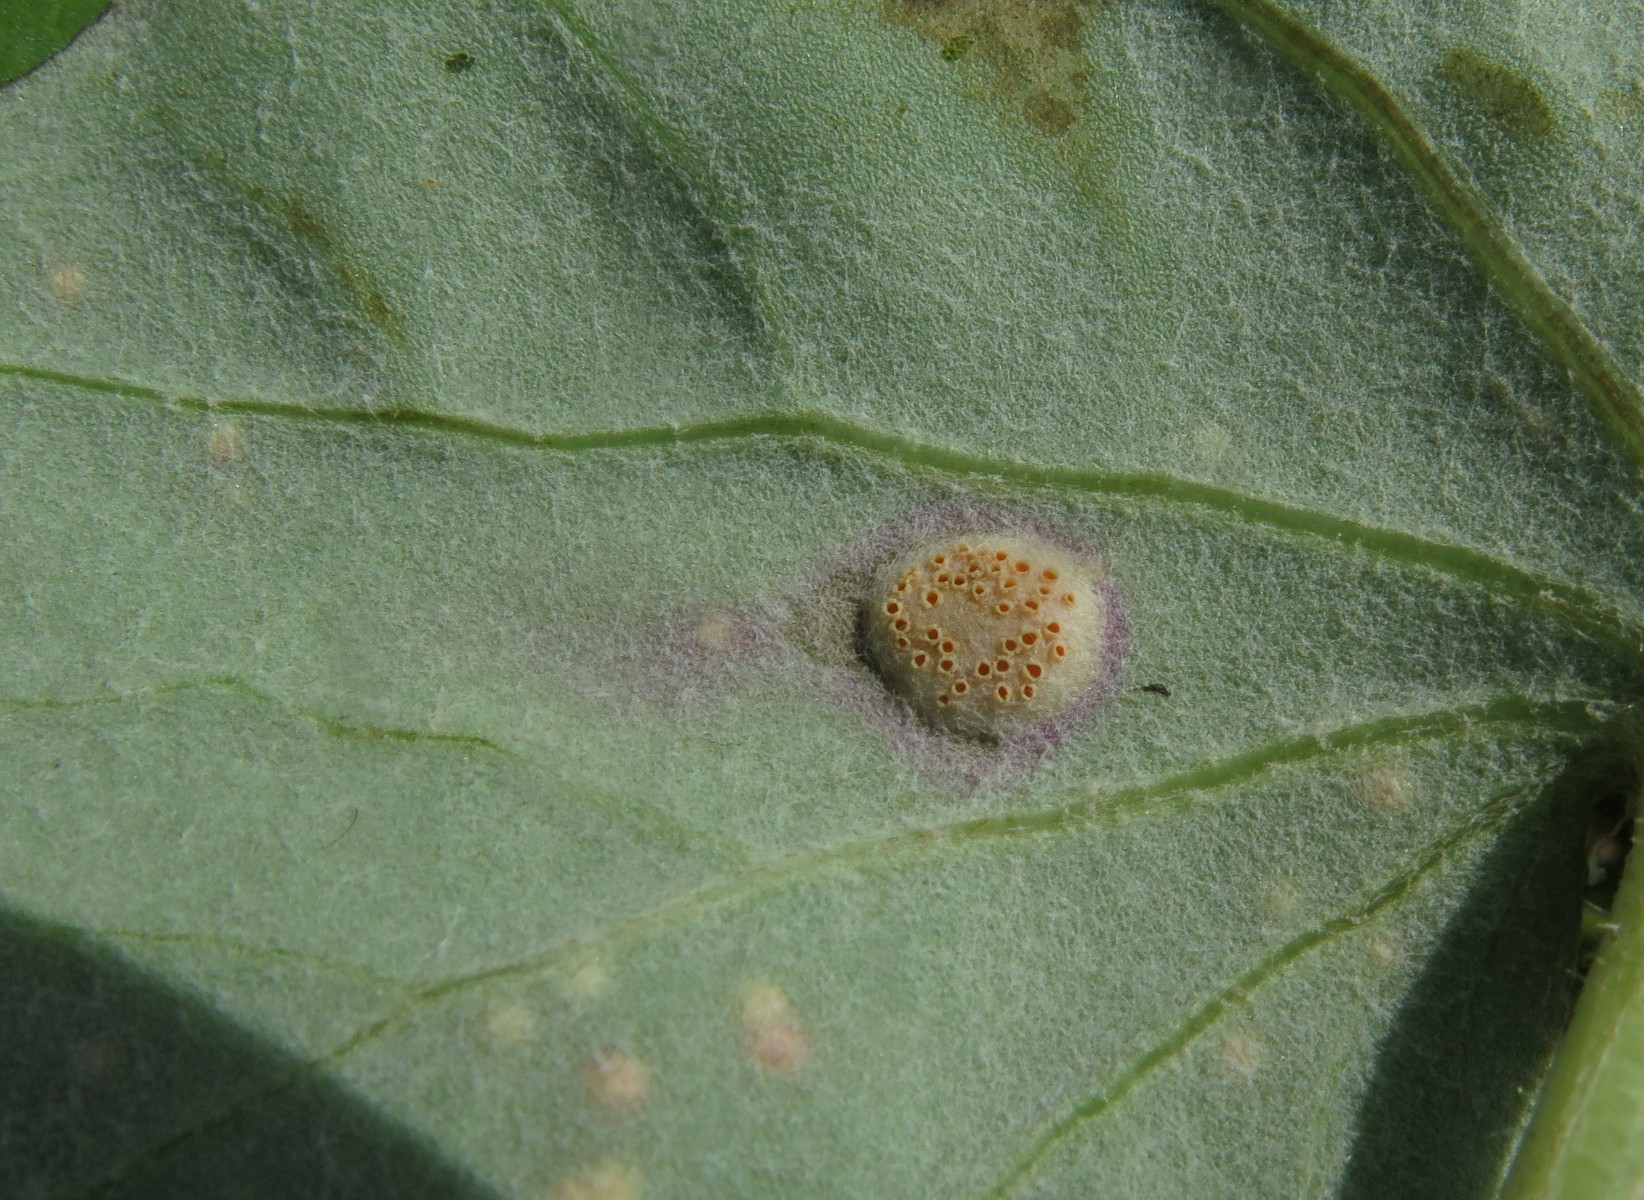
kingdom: Fungi
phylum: Basidiomycota
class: Pucciniomycetes
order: Pucciniales
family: Pucciniaceae
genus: Puccinia
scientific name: Puccinia poarum
